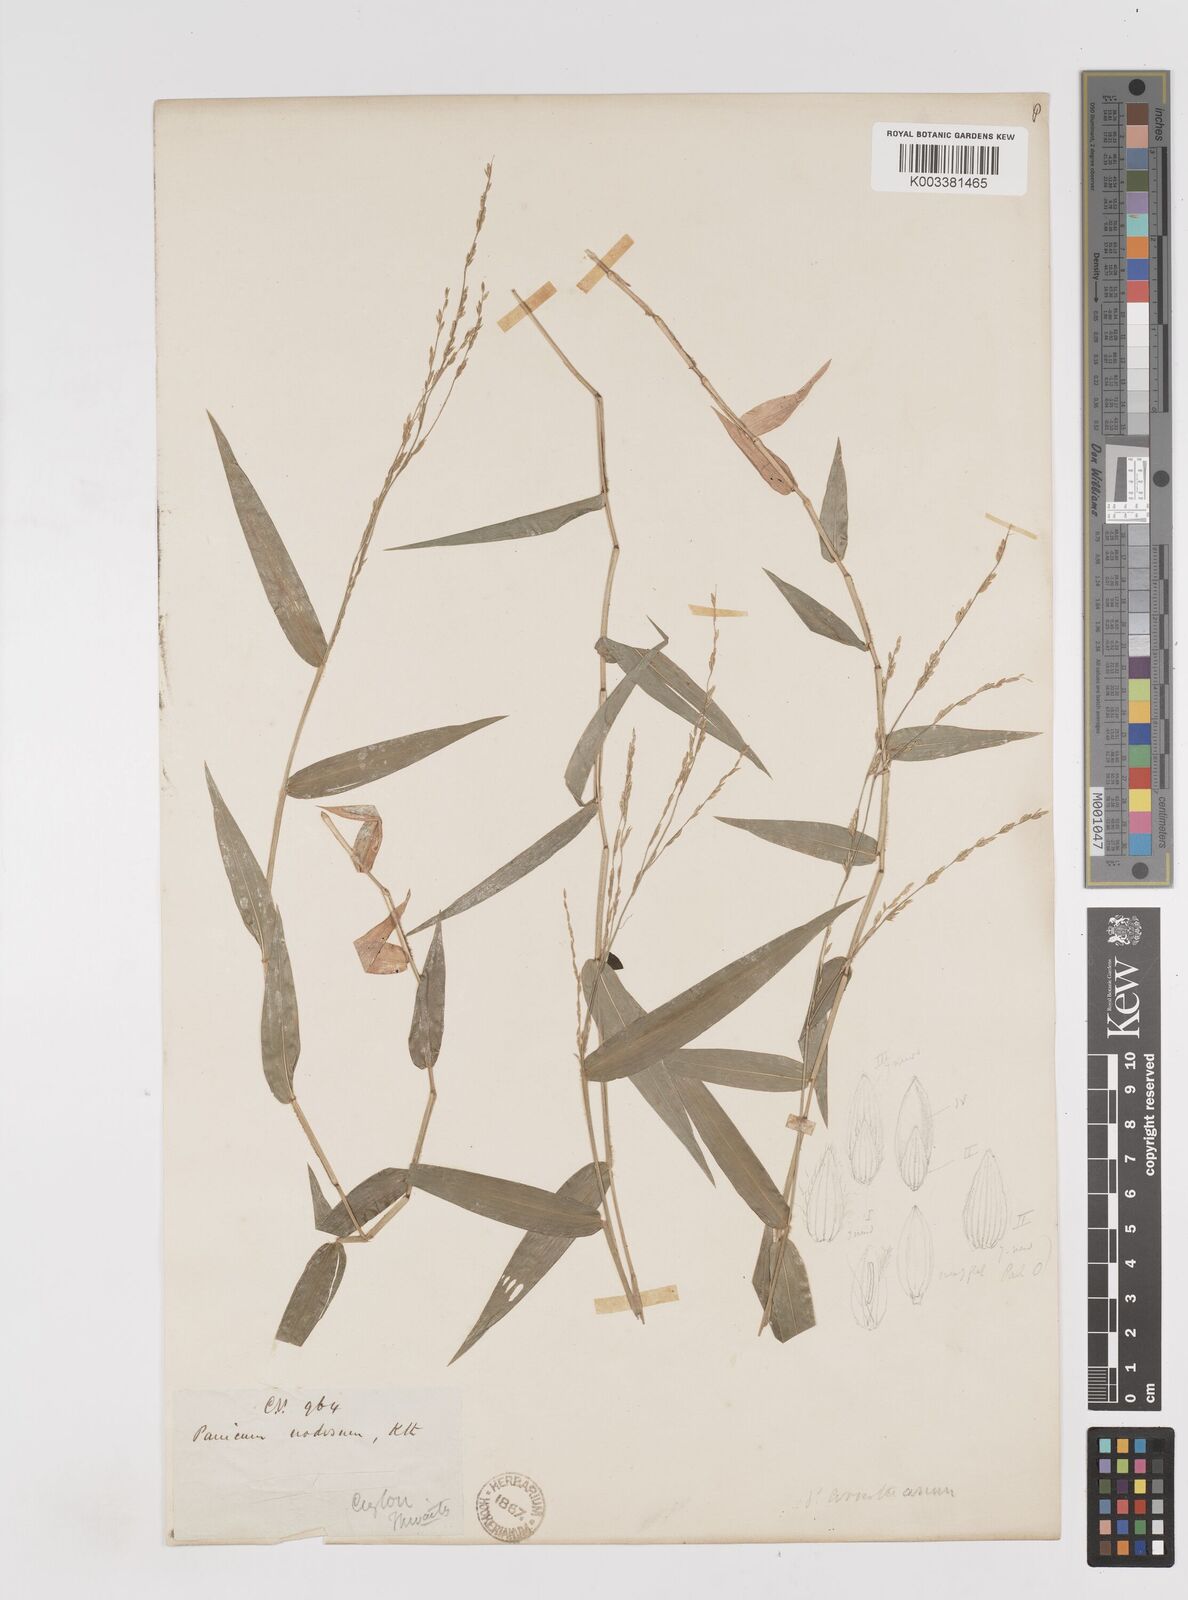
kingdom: Plantae
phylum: Tracheophyta
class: Liliopsida
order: Poales
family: Poaceae
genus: Ottochloa
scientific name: Ottochloa nodosa
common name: Slender-panic grass
